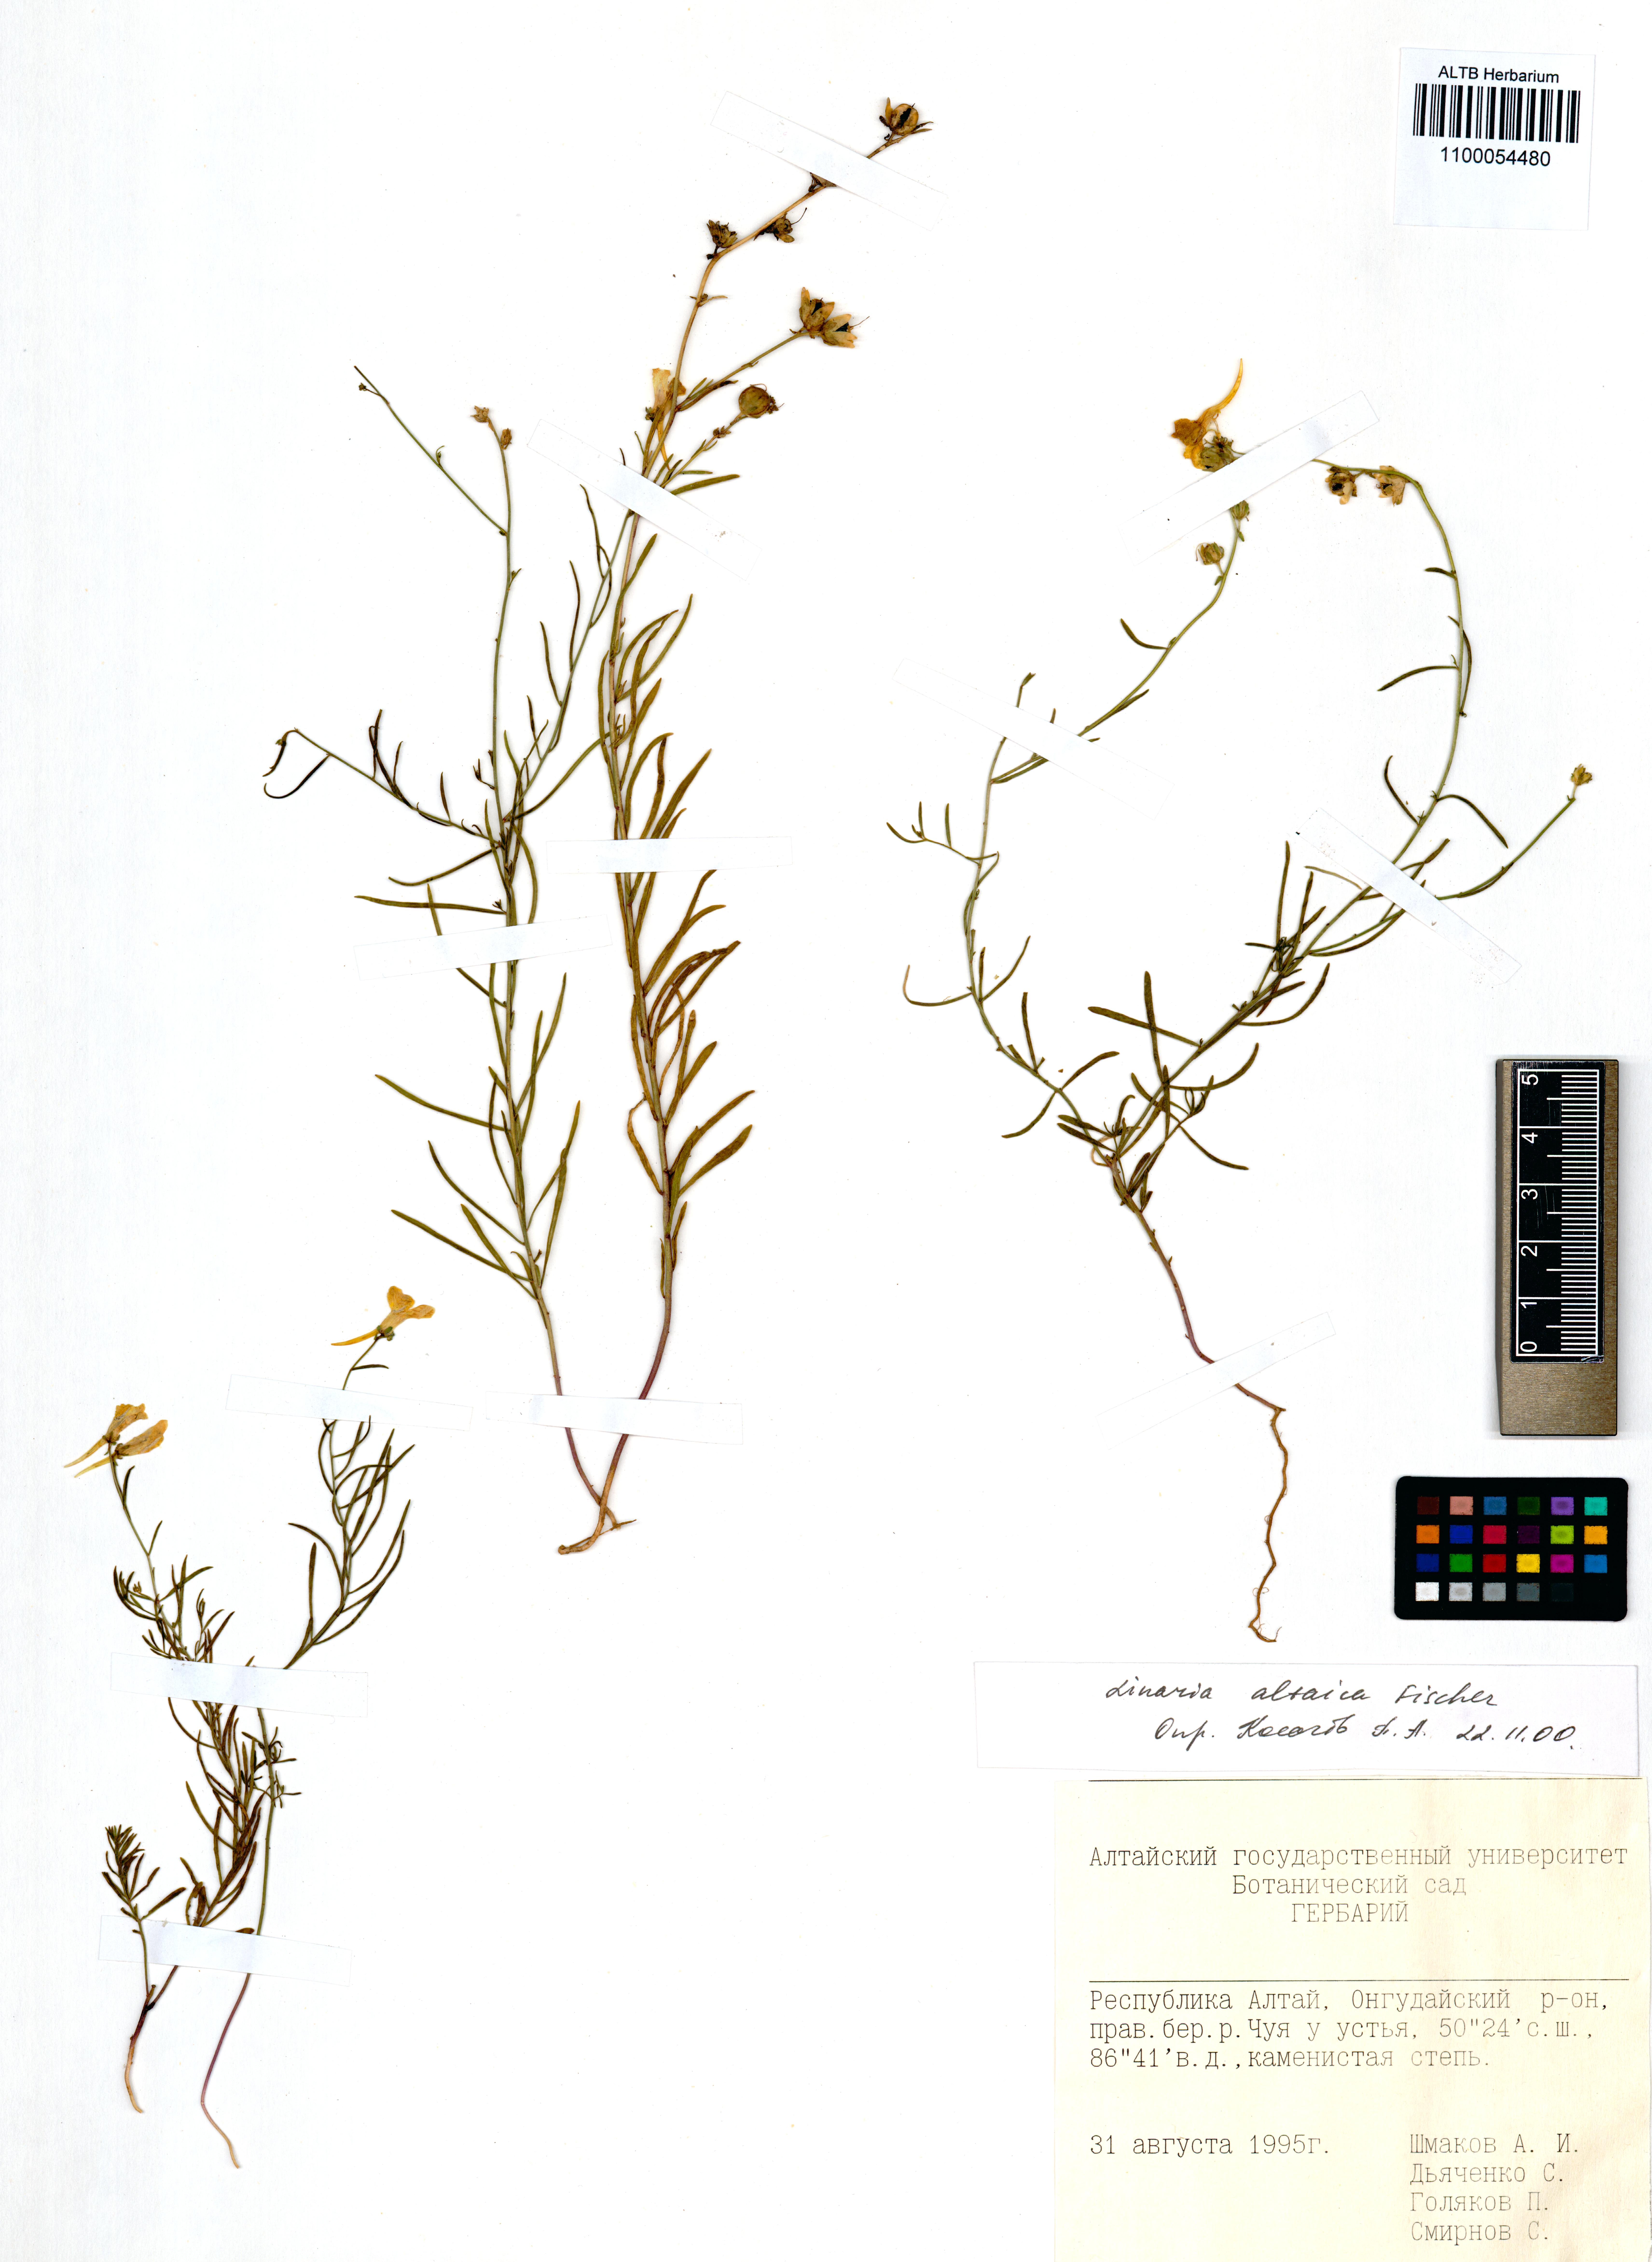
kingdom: Plantae
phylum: Tracheophyta
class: Magnoliopsida
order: Lamiales
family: Plantaginaceae
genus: Linaria
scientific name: Linaria altaica
